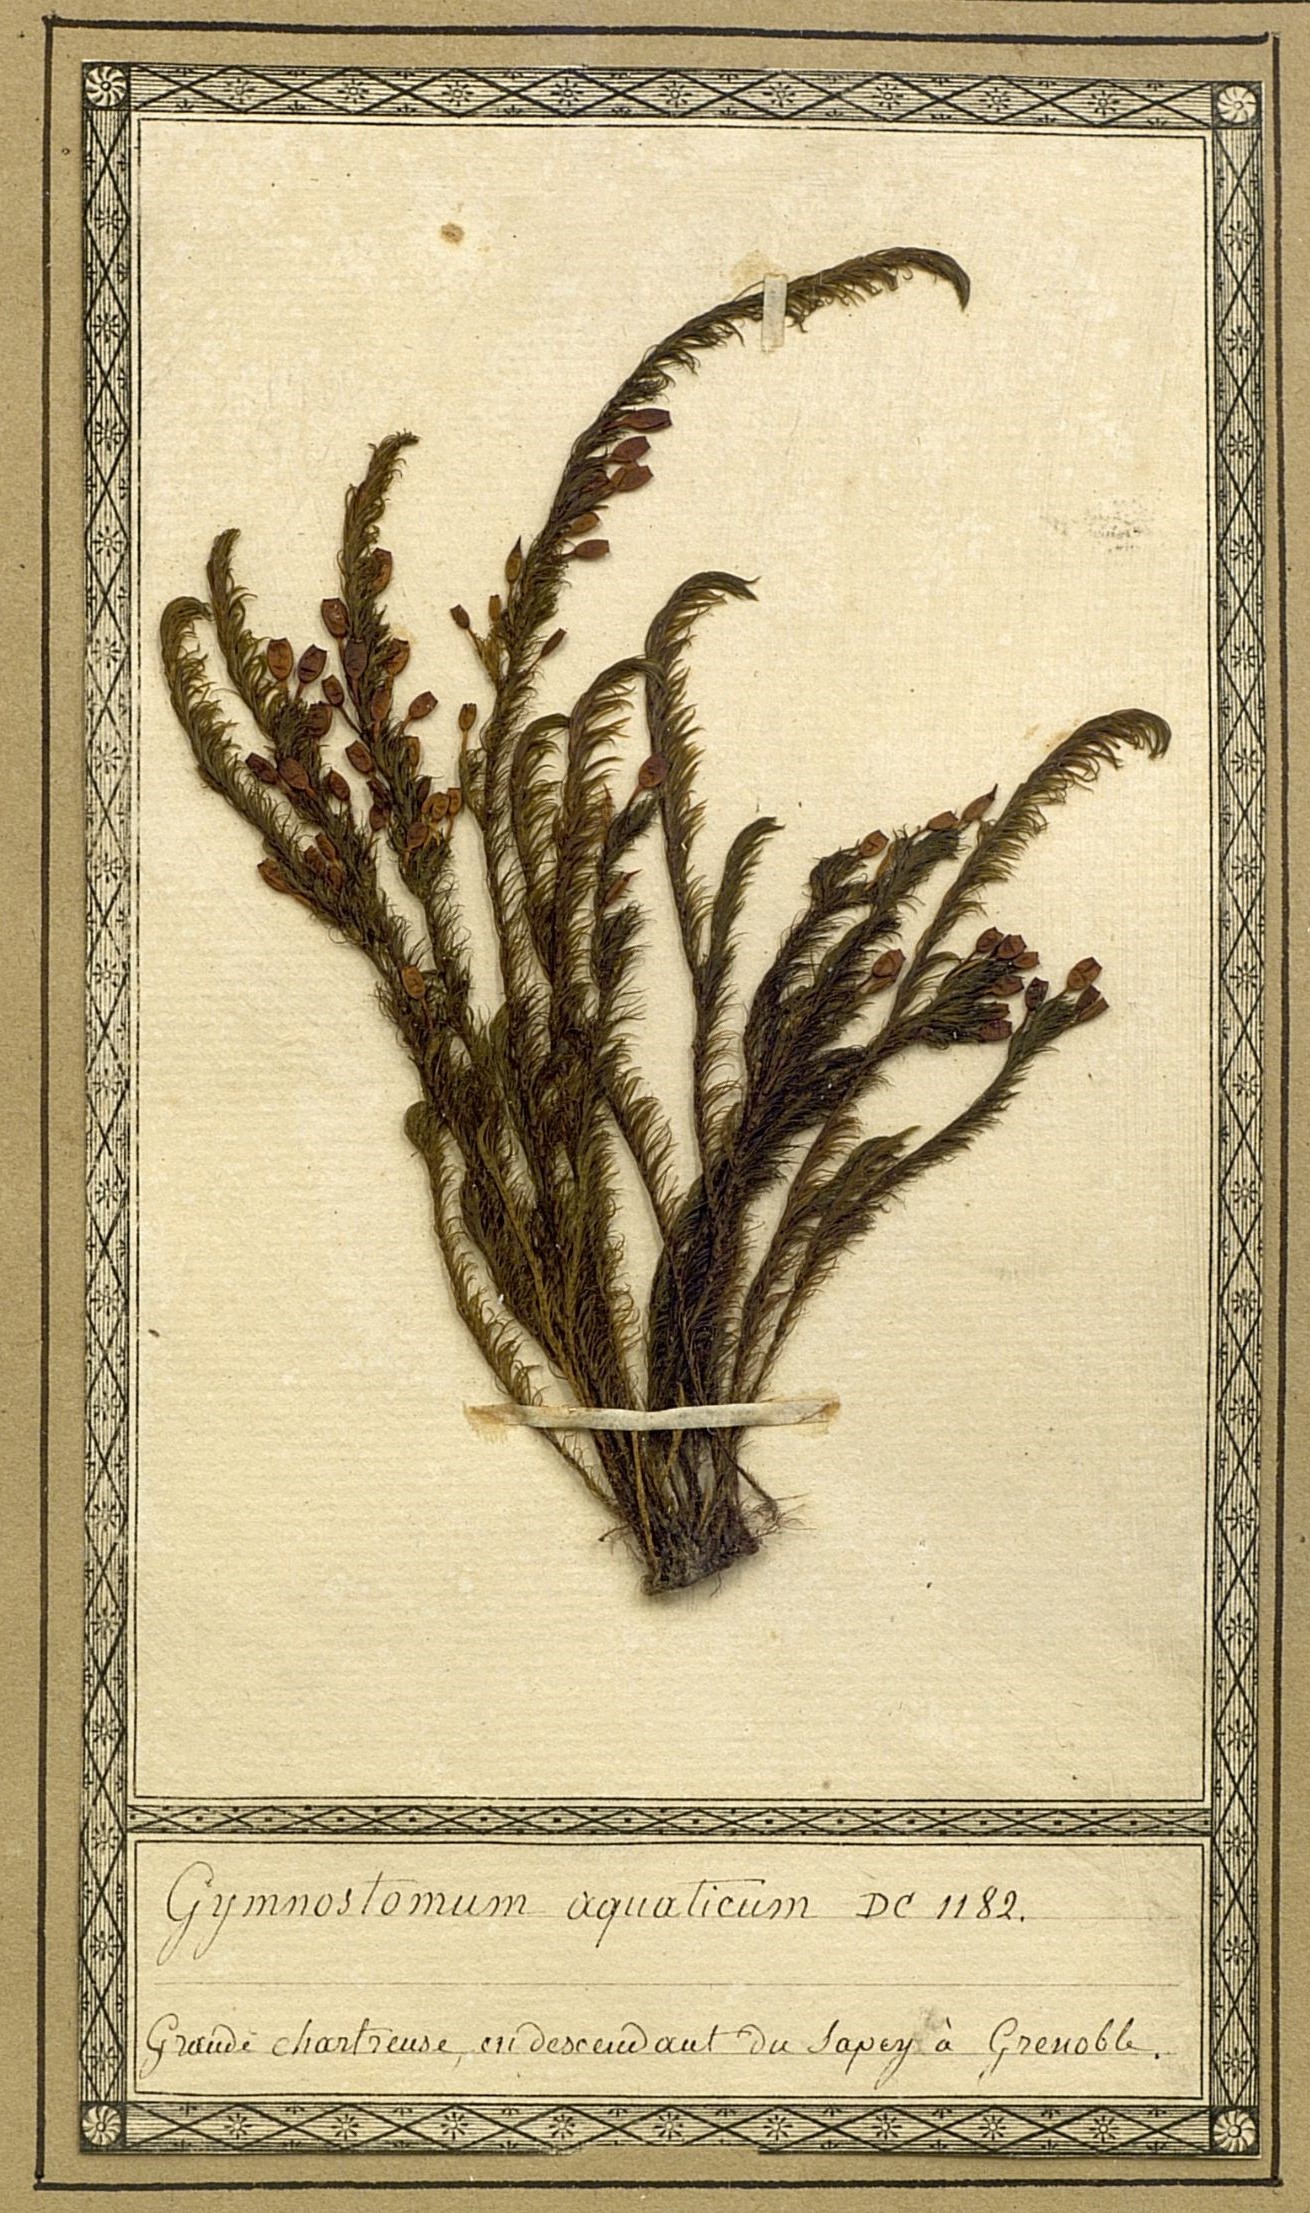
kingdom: Plantae
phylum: Bryophyta
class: Bryopsida
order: Pottiales
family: Pottiaceae
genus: Cinclidotus
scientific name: Cinclidotus aquaticus
